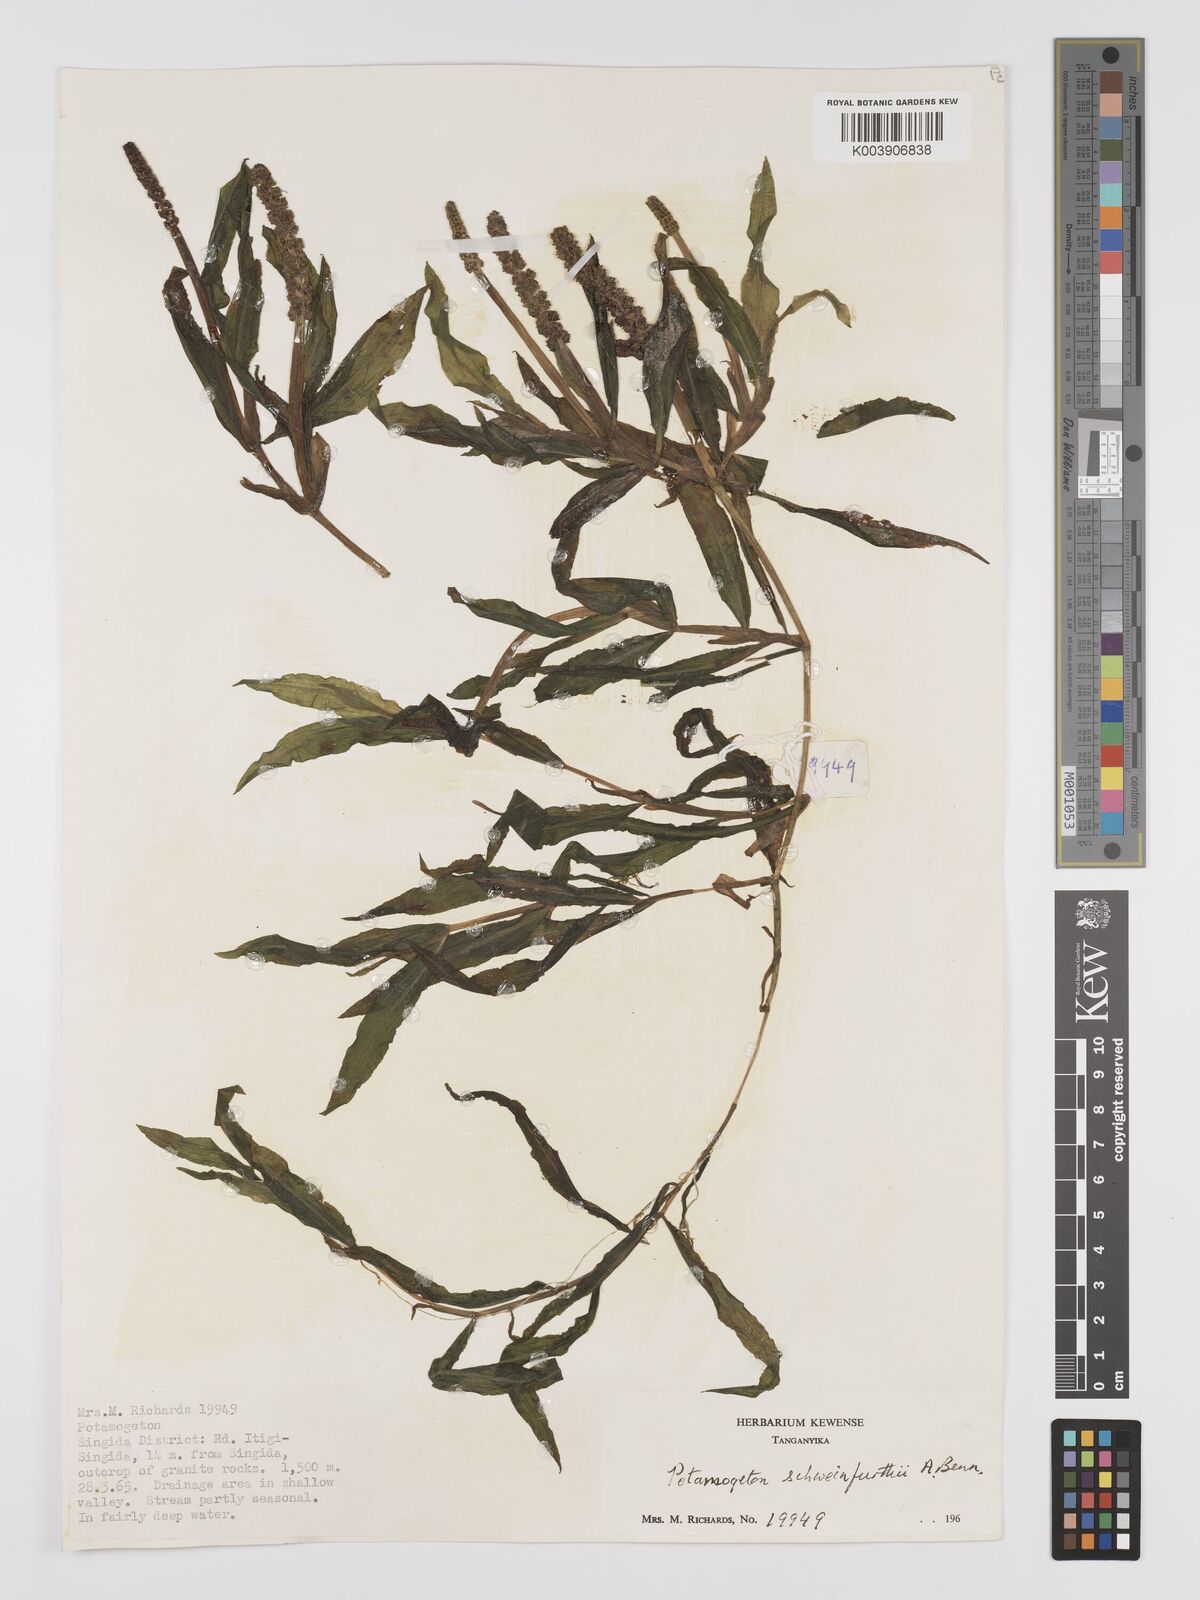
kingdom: Plantae
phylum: Tracheophyta
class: Liliopsida
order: Alismatales
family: Potamogetonaceae
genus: Potamogeton
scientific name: Potamogeton schweinfurthii
